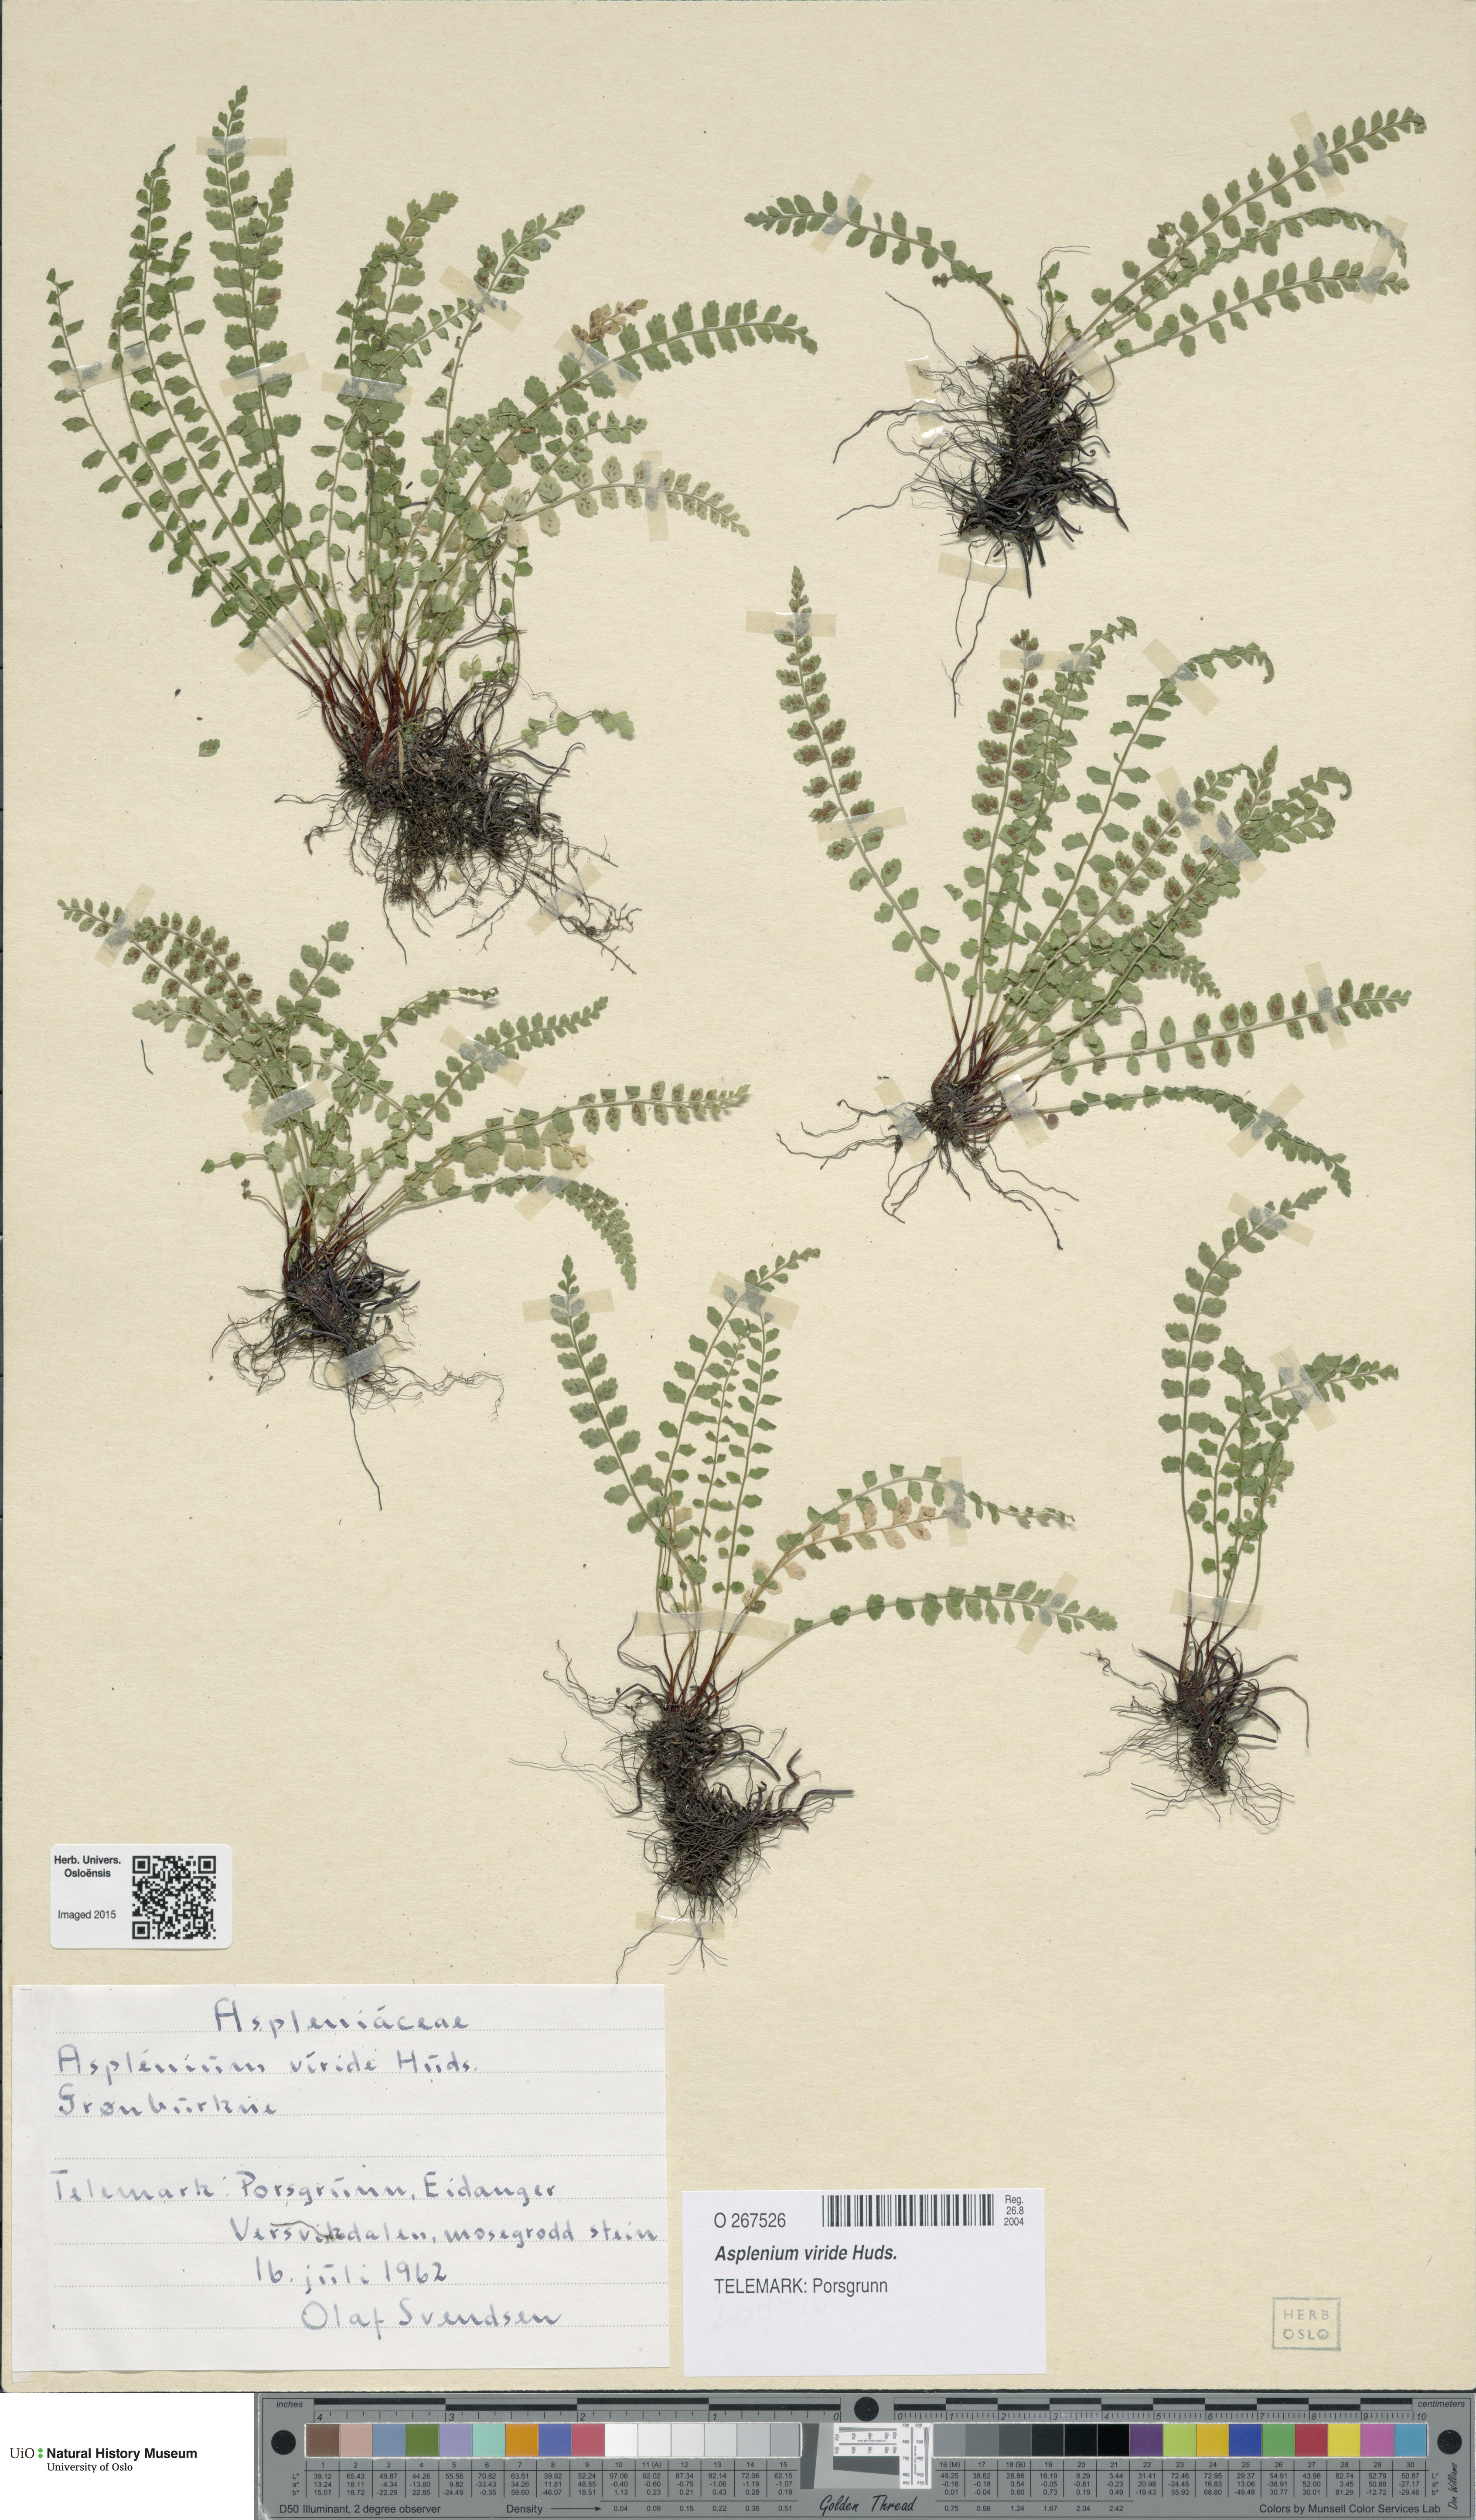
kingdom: Plantae
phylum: Tracheophyta
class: Polypodiopsida
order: Polypodiales
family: Aspleniaceae
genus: Asplenium
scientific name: Asplenium viride
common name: Green spleenwort
